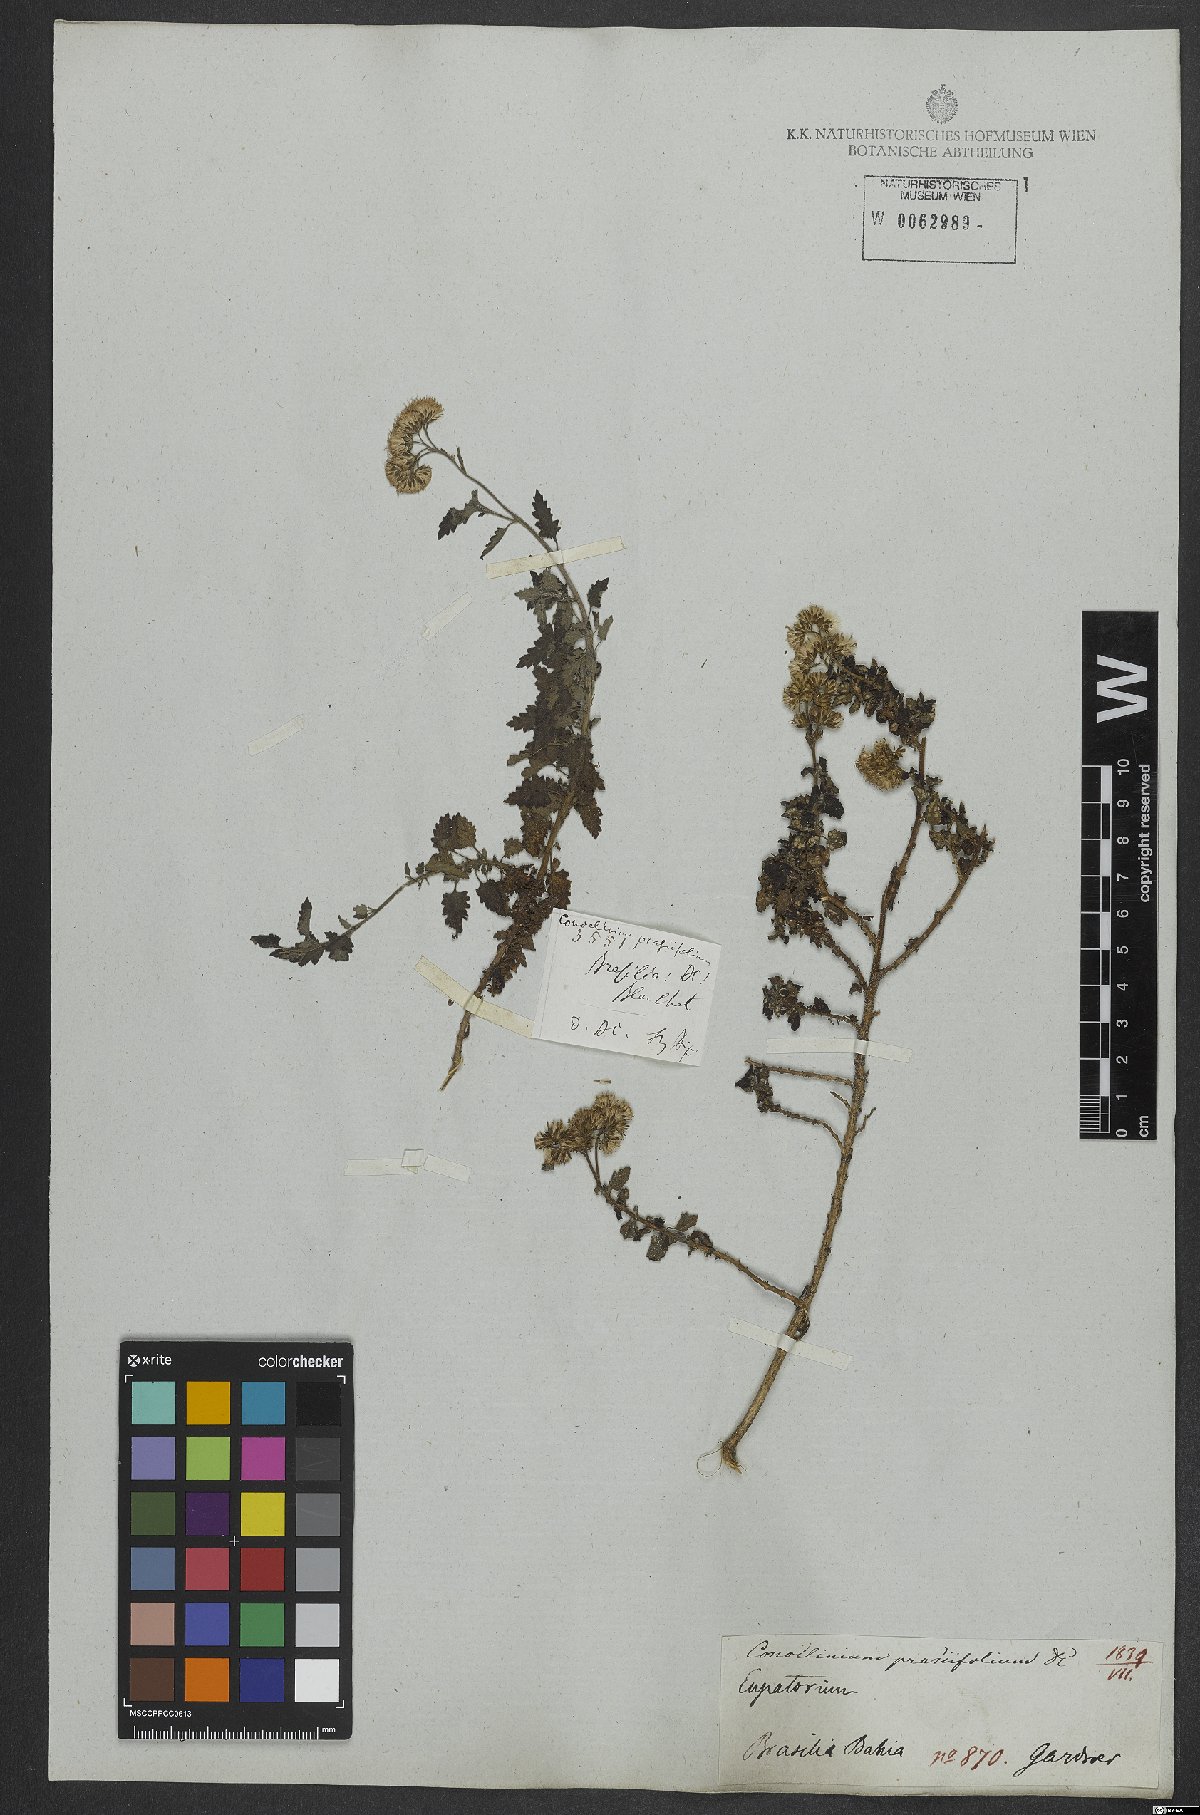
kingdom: Plantae
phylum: Tracheophyta
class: Magnoliopsida
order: Asterales
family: Asteraceae
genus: Conocliniopsis
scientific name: Conocliniopsis grossedentata
